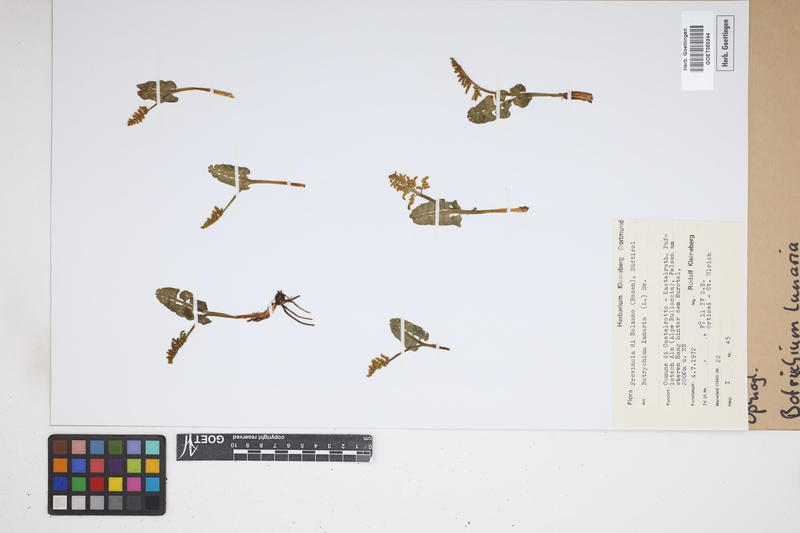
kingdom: Plantae
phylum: Tracheophyta
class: Polypodiopsida
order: Ophioglossales
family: Ophioglossaceae
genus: Botrychium
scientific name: Botrychium lunaria
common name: Moonwort
